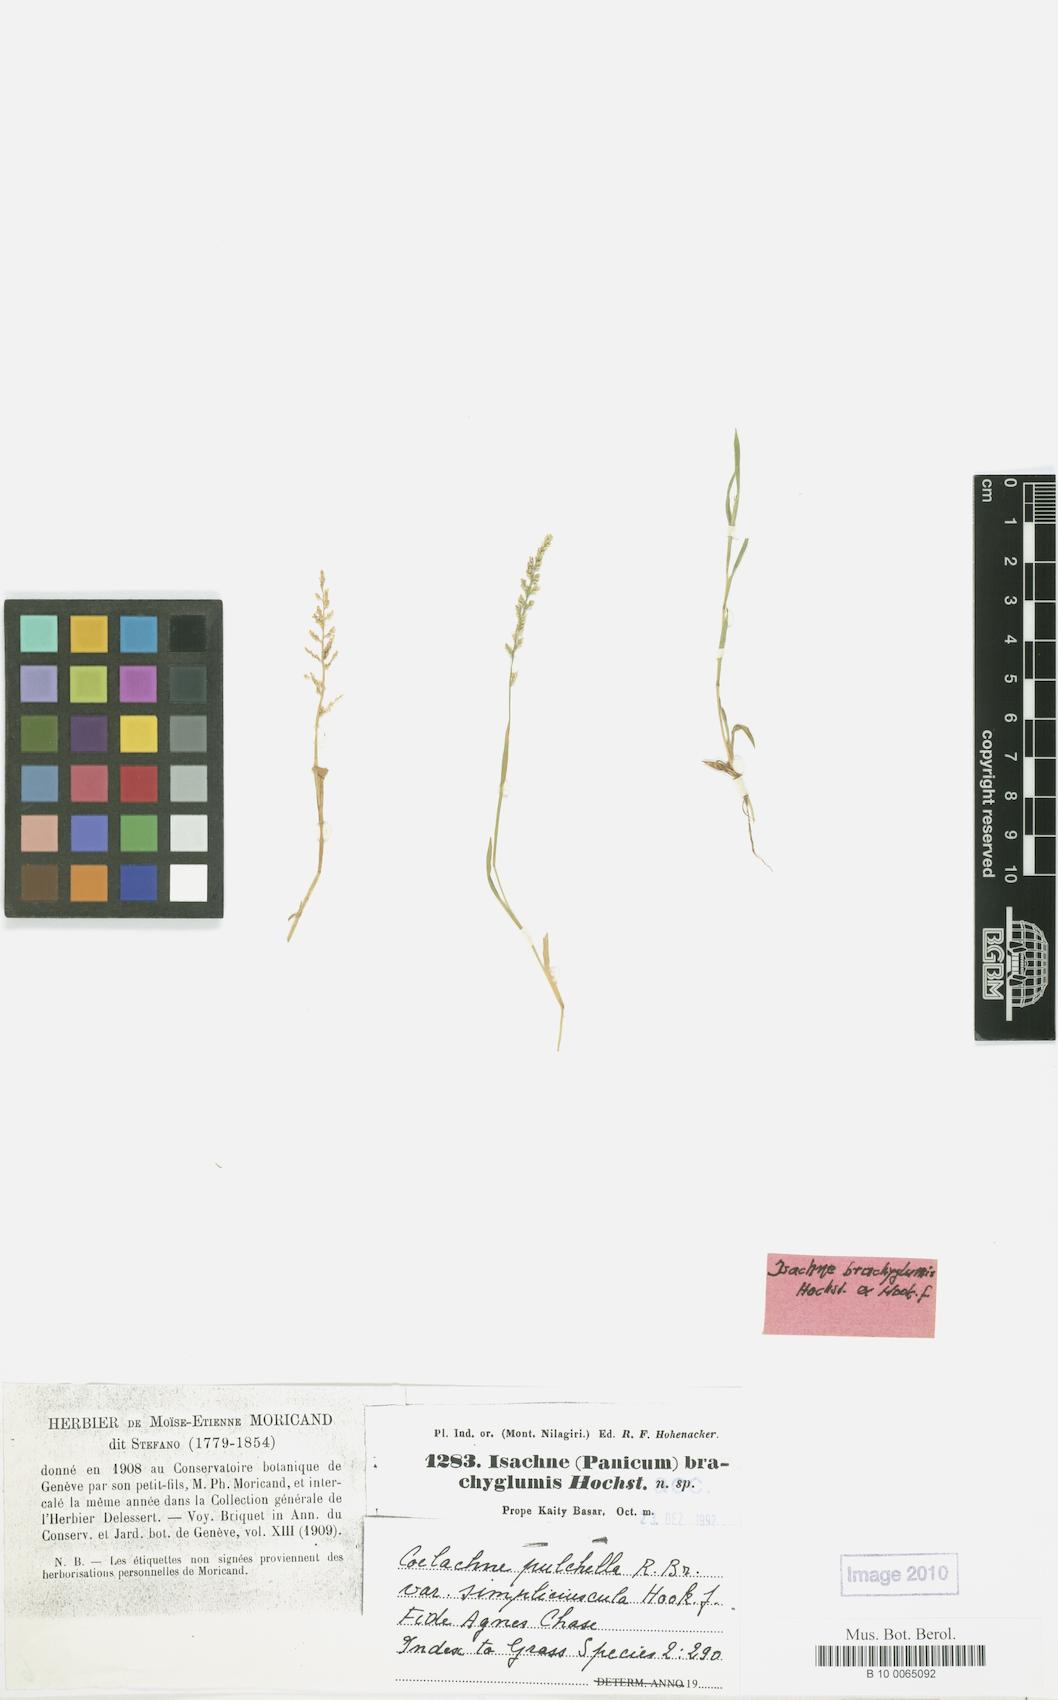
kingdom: Plantae
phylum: Tracheophyta
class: Liliopsida
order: Poales
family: Poaceae
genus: Coelachne
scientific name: Coelachne simpliciuscula
